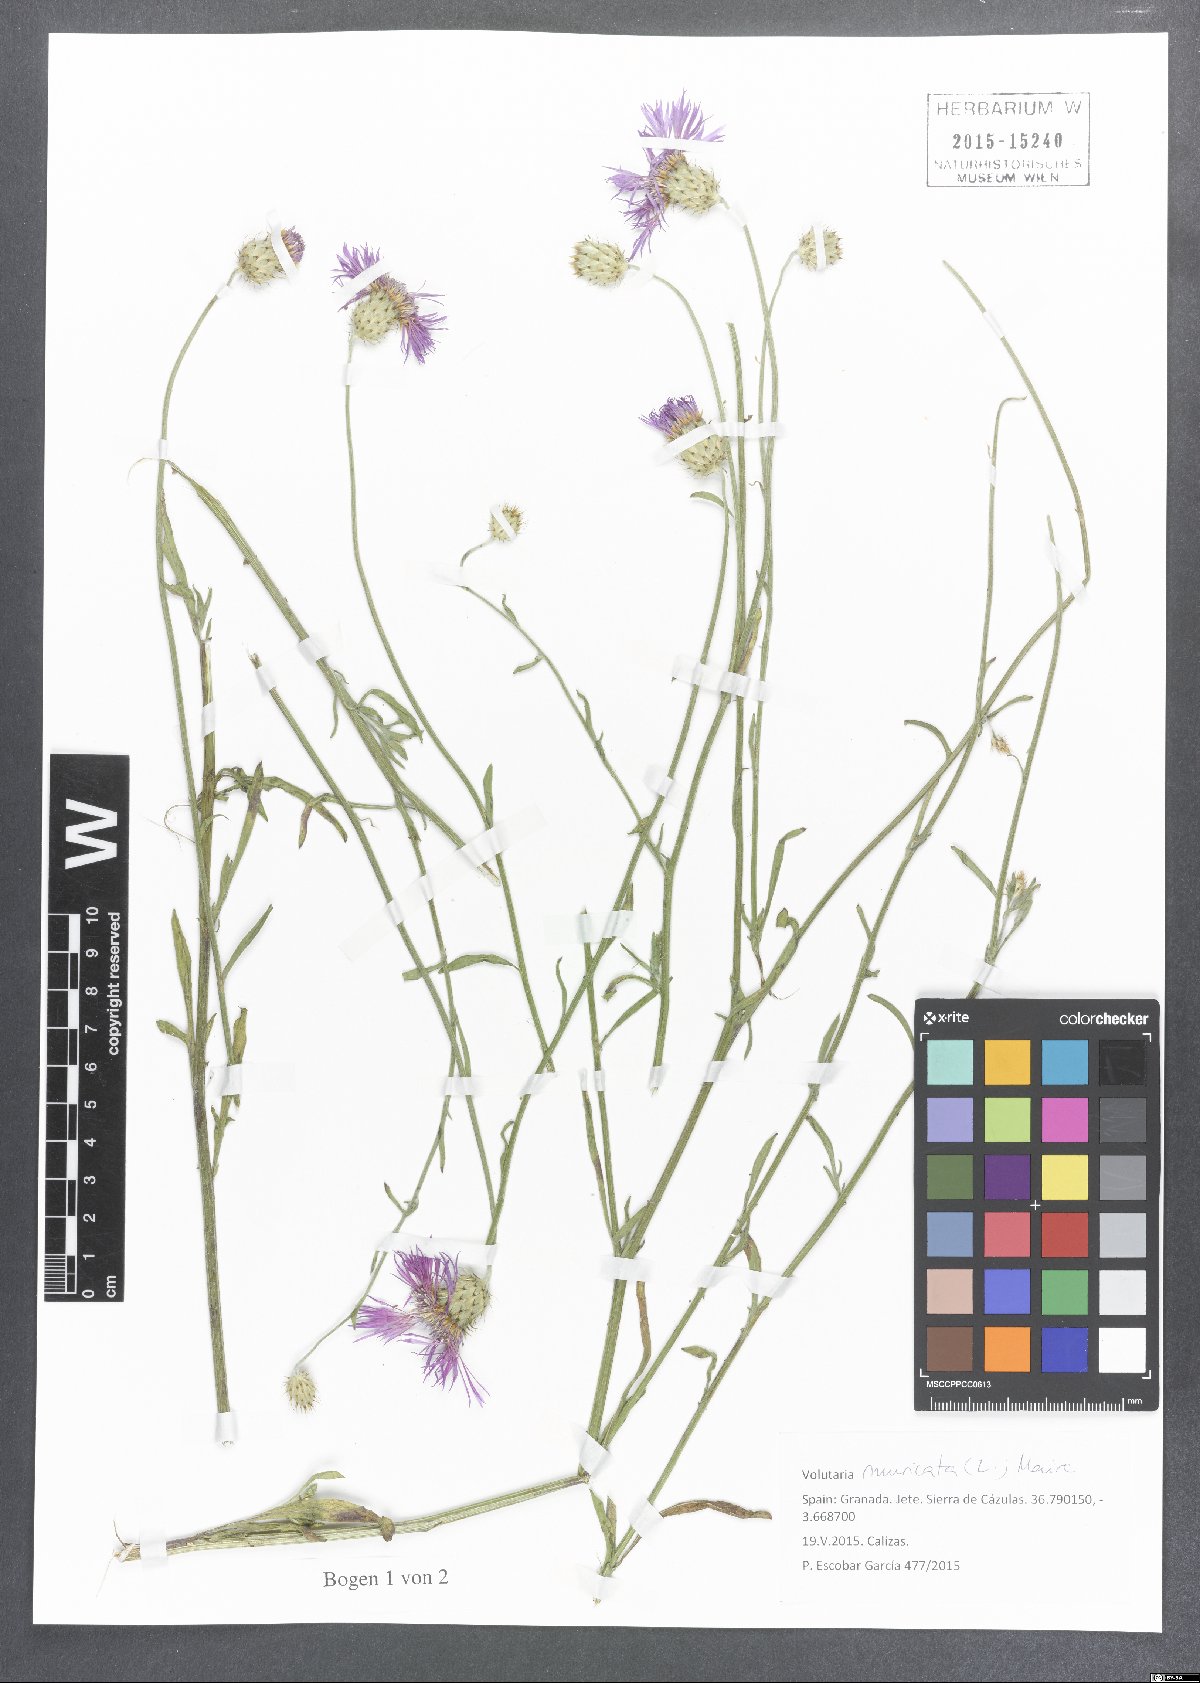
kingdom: Plantae
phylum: Tracheophyta
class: Magnoliopsida
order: Asterales
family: Asteraceae
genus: Volutaria
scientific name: Volutaria muricata
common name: Morocco knapweed
